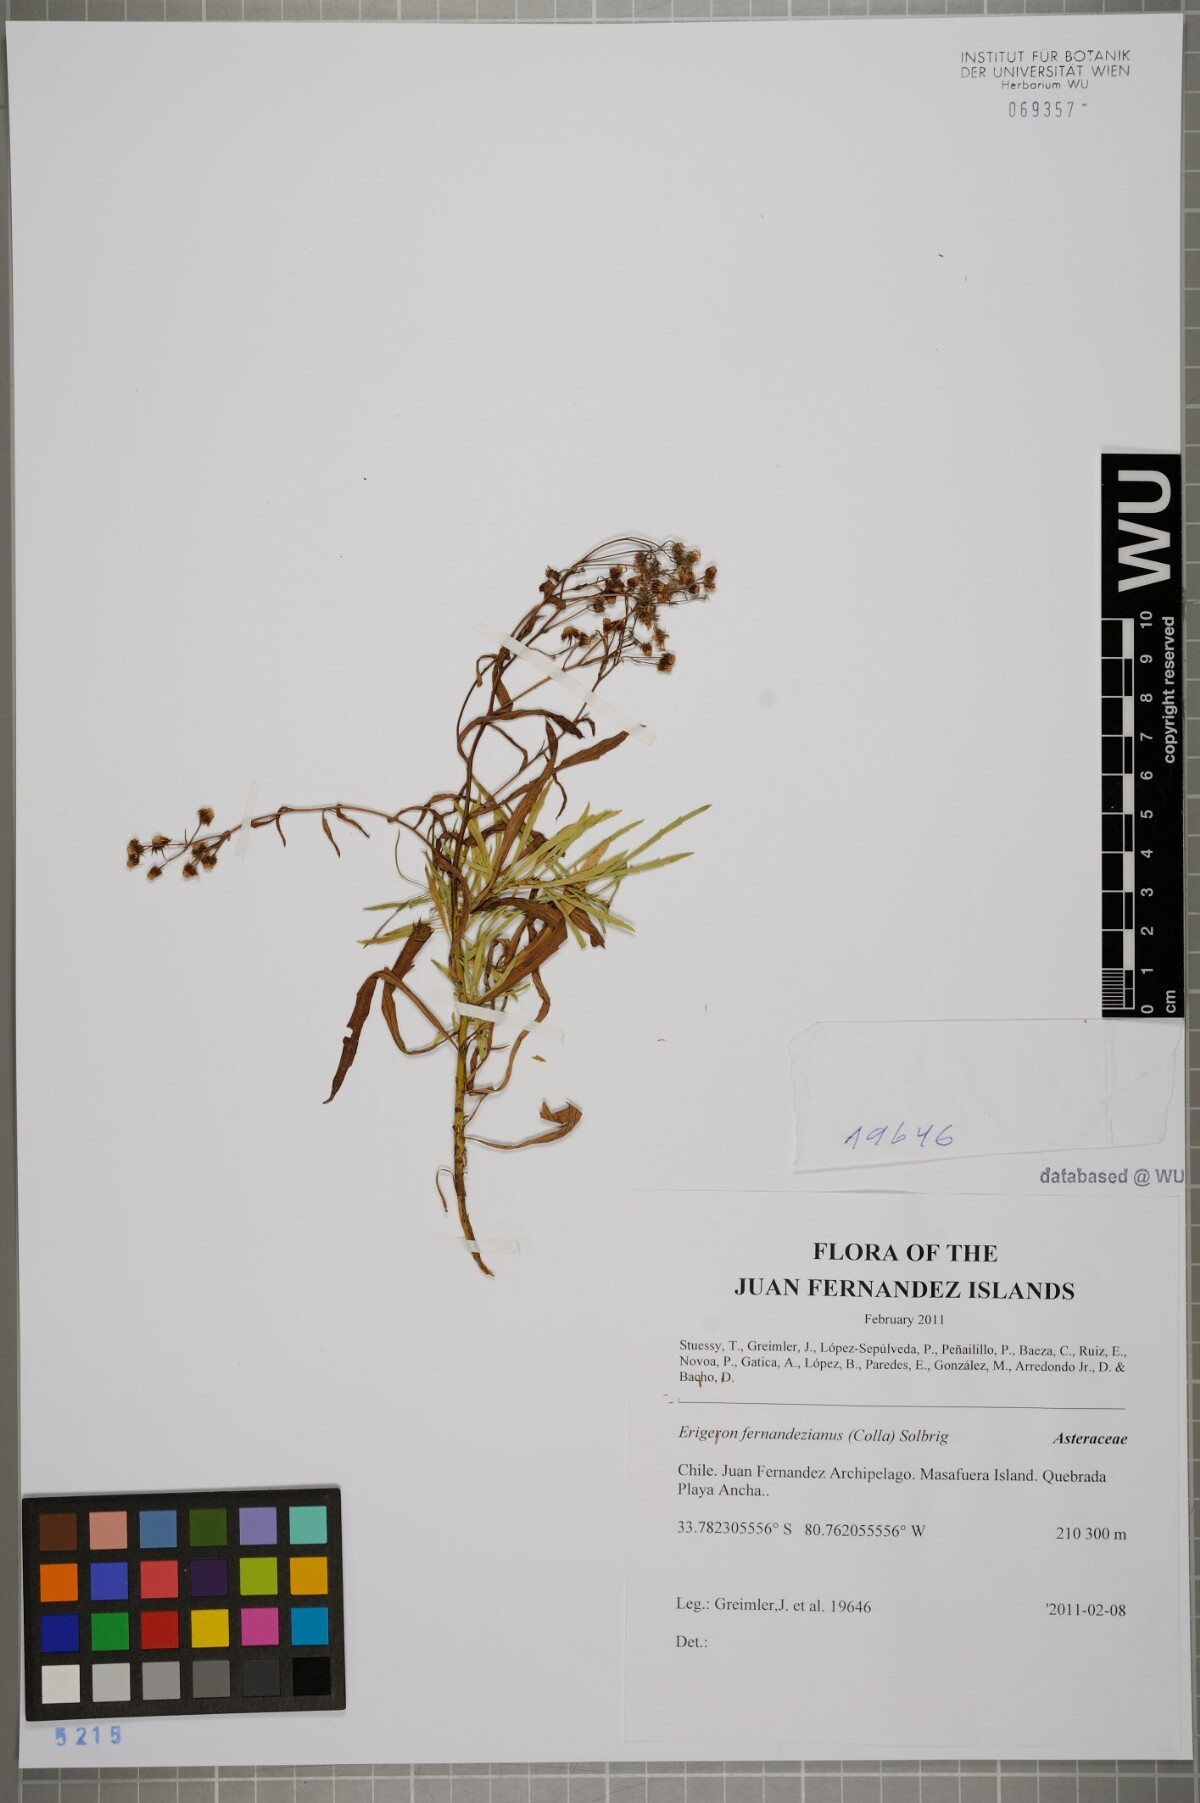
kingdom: Plantae
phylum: Tracheophyta
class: Magnoliopsida
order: Asterales
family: Asteraceae
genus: Erigeron
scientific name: Erigeron fernandezianus
